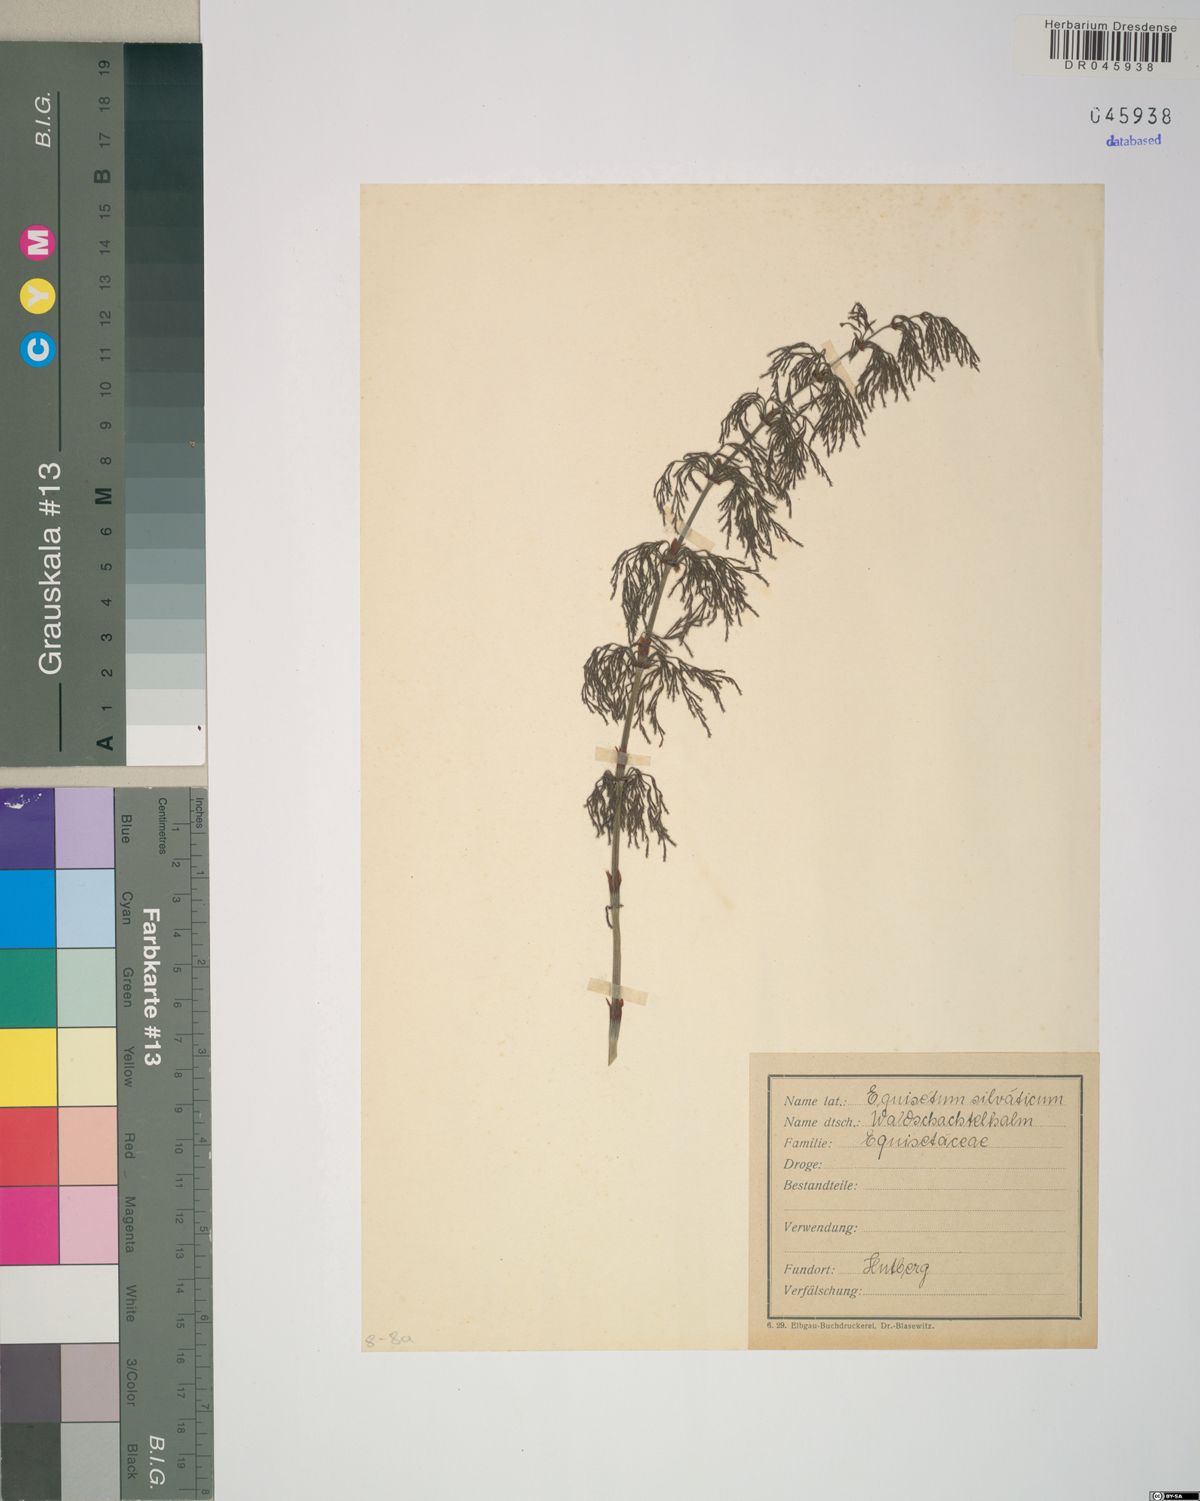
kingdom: Plantae
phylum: Tracheophyta
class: Polypodiopsida
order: Equisetales
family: Equisetaceae
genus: Equisetum
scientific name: Equisetum sylvaticum
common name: Wood horsetail
